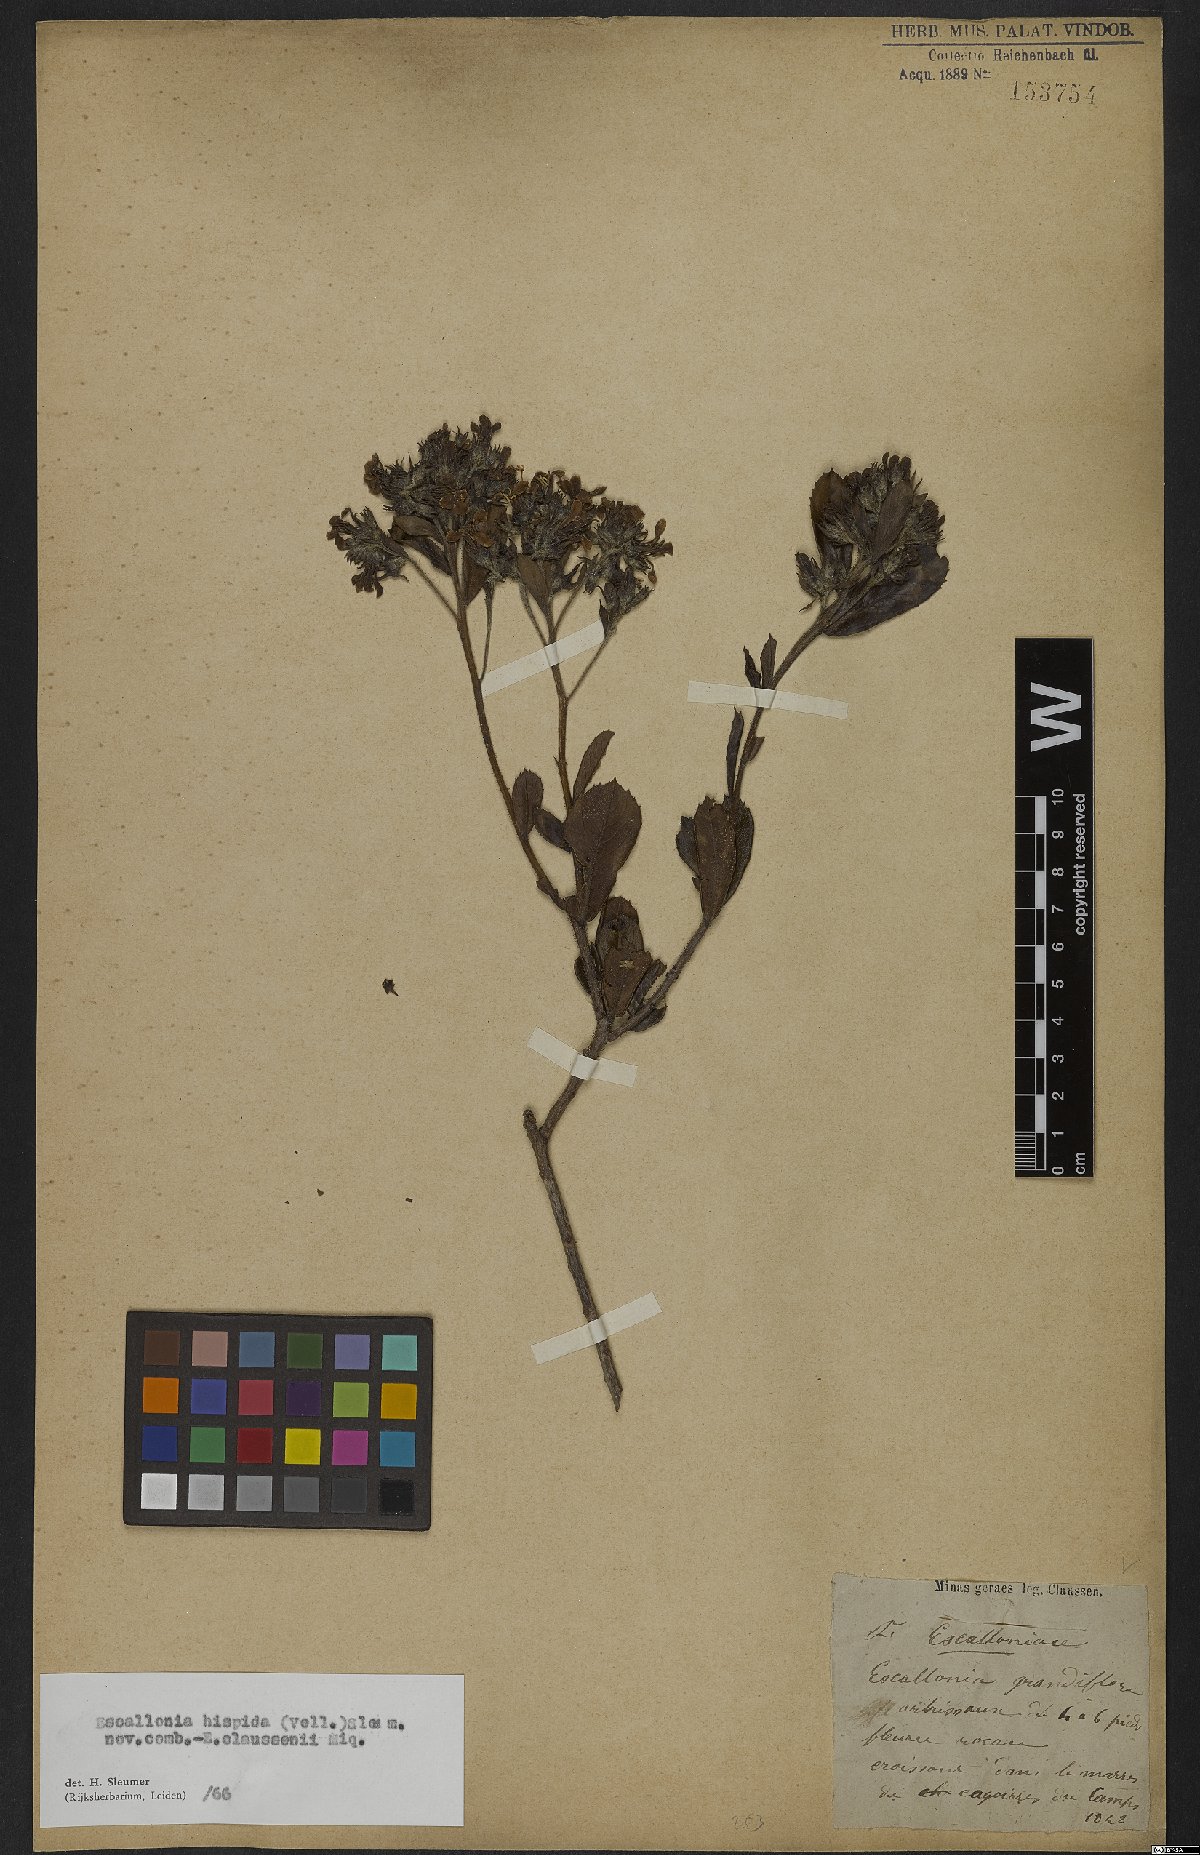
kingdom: Plantae
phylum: Tracheophyta
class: Magnoliopsida
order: Escalloniales
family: Escalloniaceae
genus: Escallonia
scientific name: Escallonia hispida
